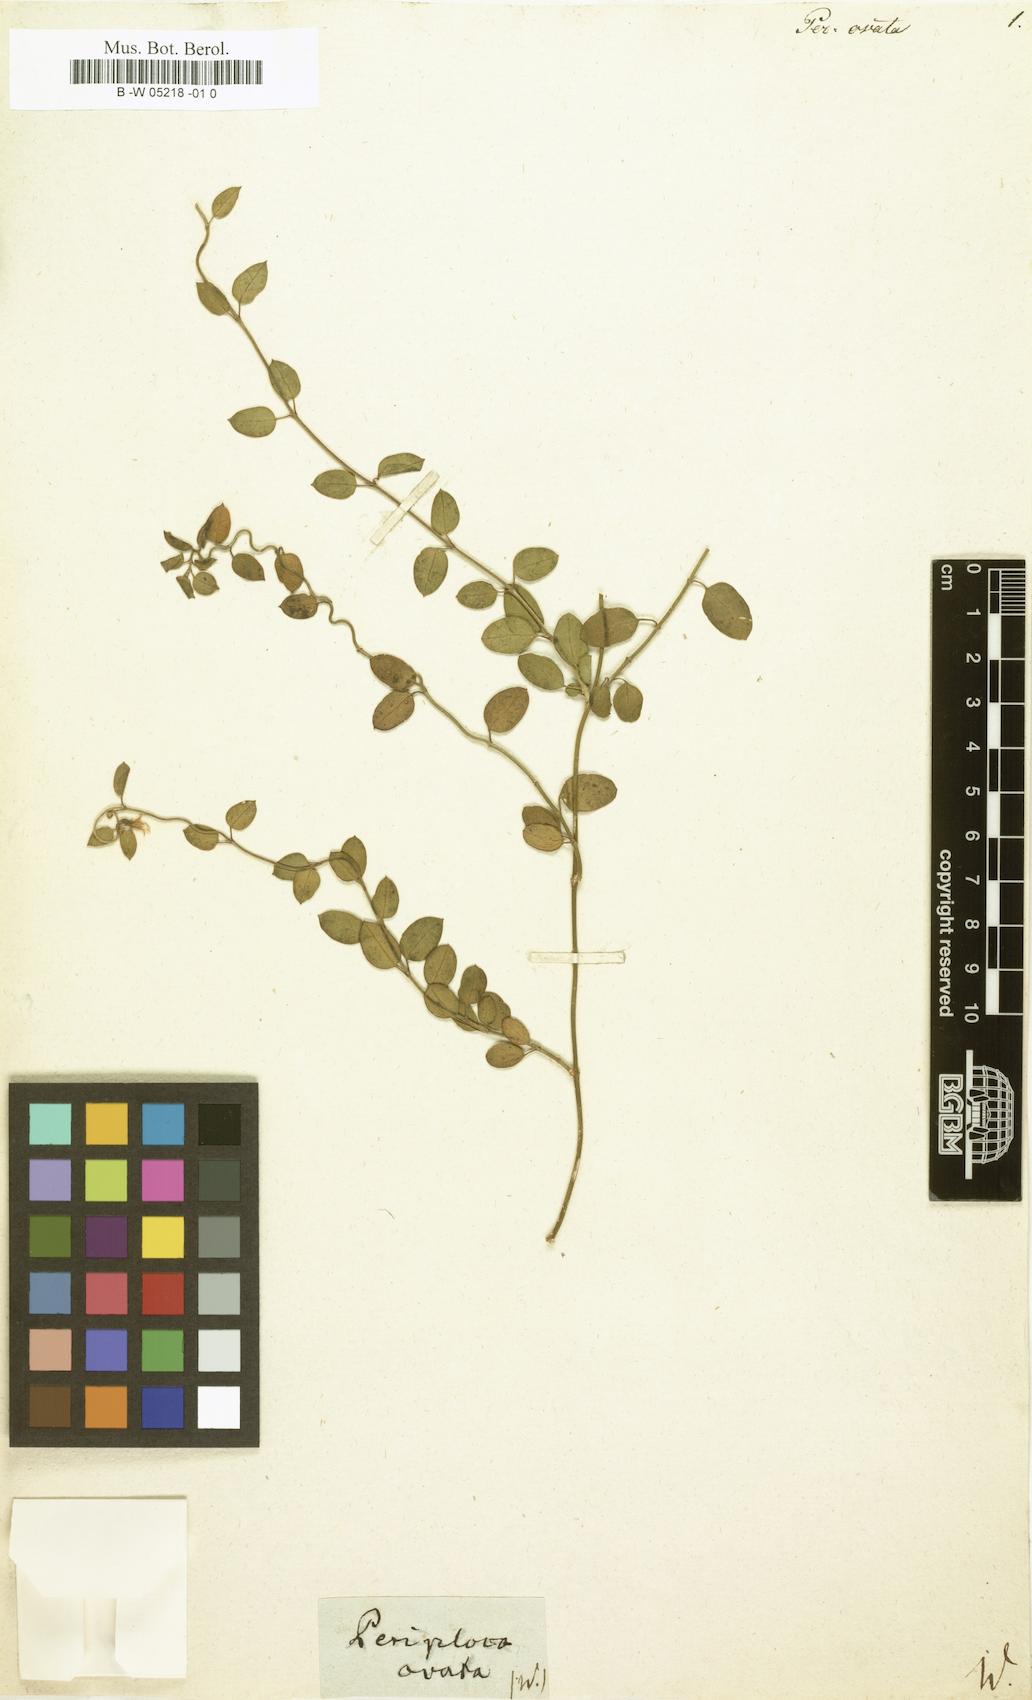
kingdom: Plantae
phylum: Tracheophyta
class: Magnoliopsida
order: Gentianales
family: Apocynaceae
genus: Vincetoxicum
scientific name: Vincetoxicum cernuum
